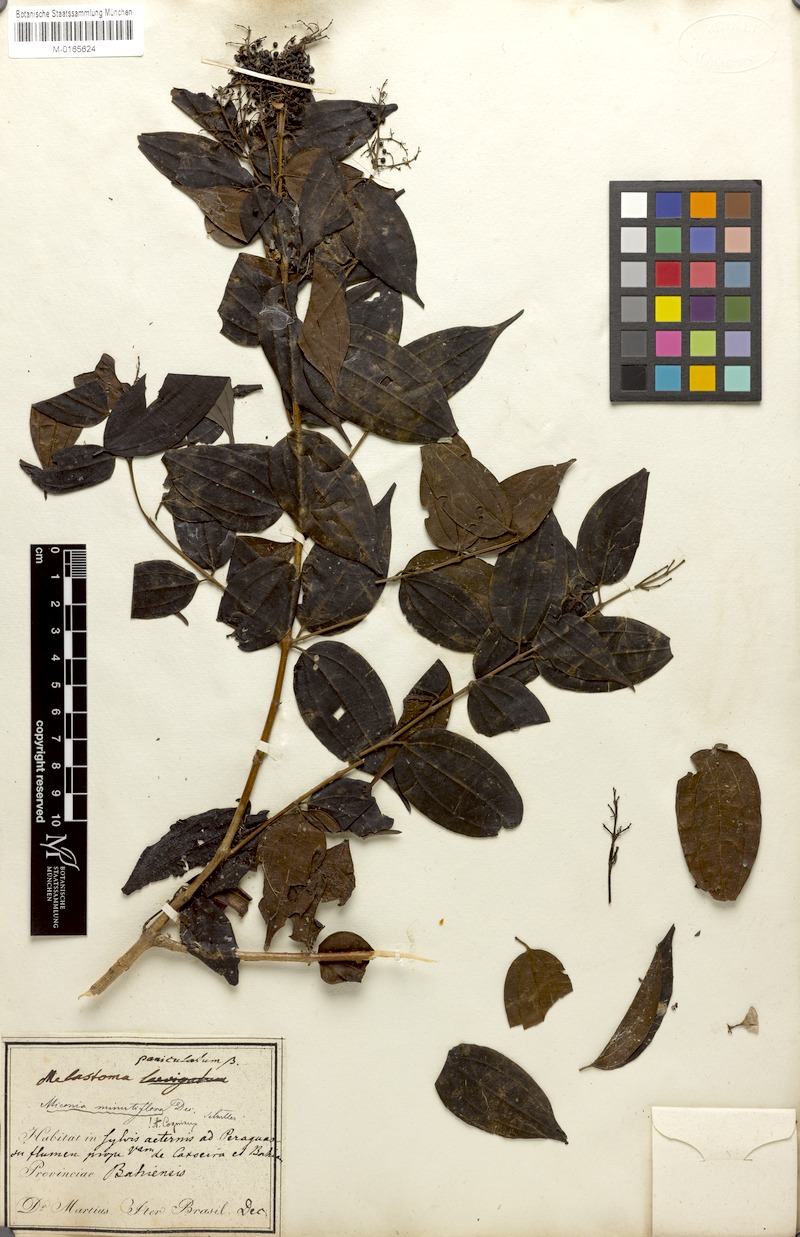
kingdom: Plantae
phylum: Tracheophyta
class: Magnoliopsida
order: Myrtales
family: Melastomataceae
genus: Miconia
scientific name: Miconia minutiflora
